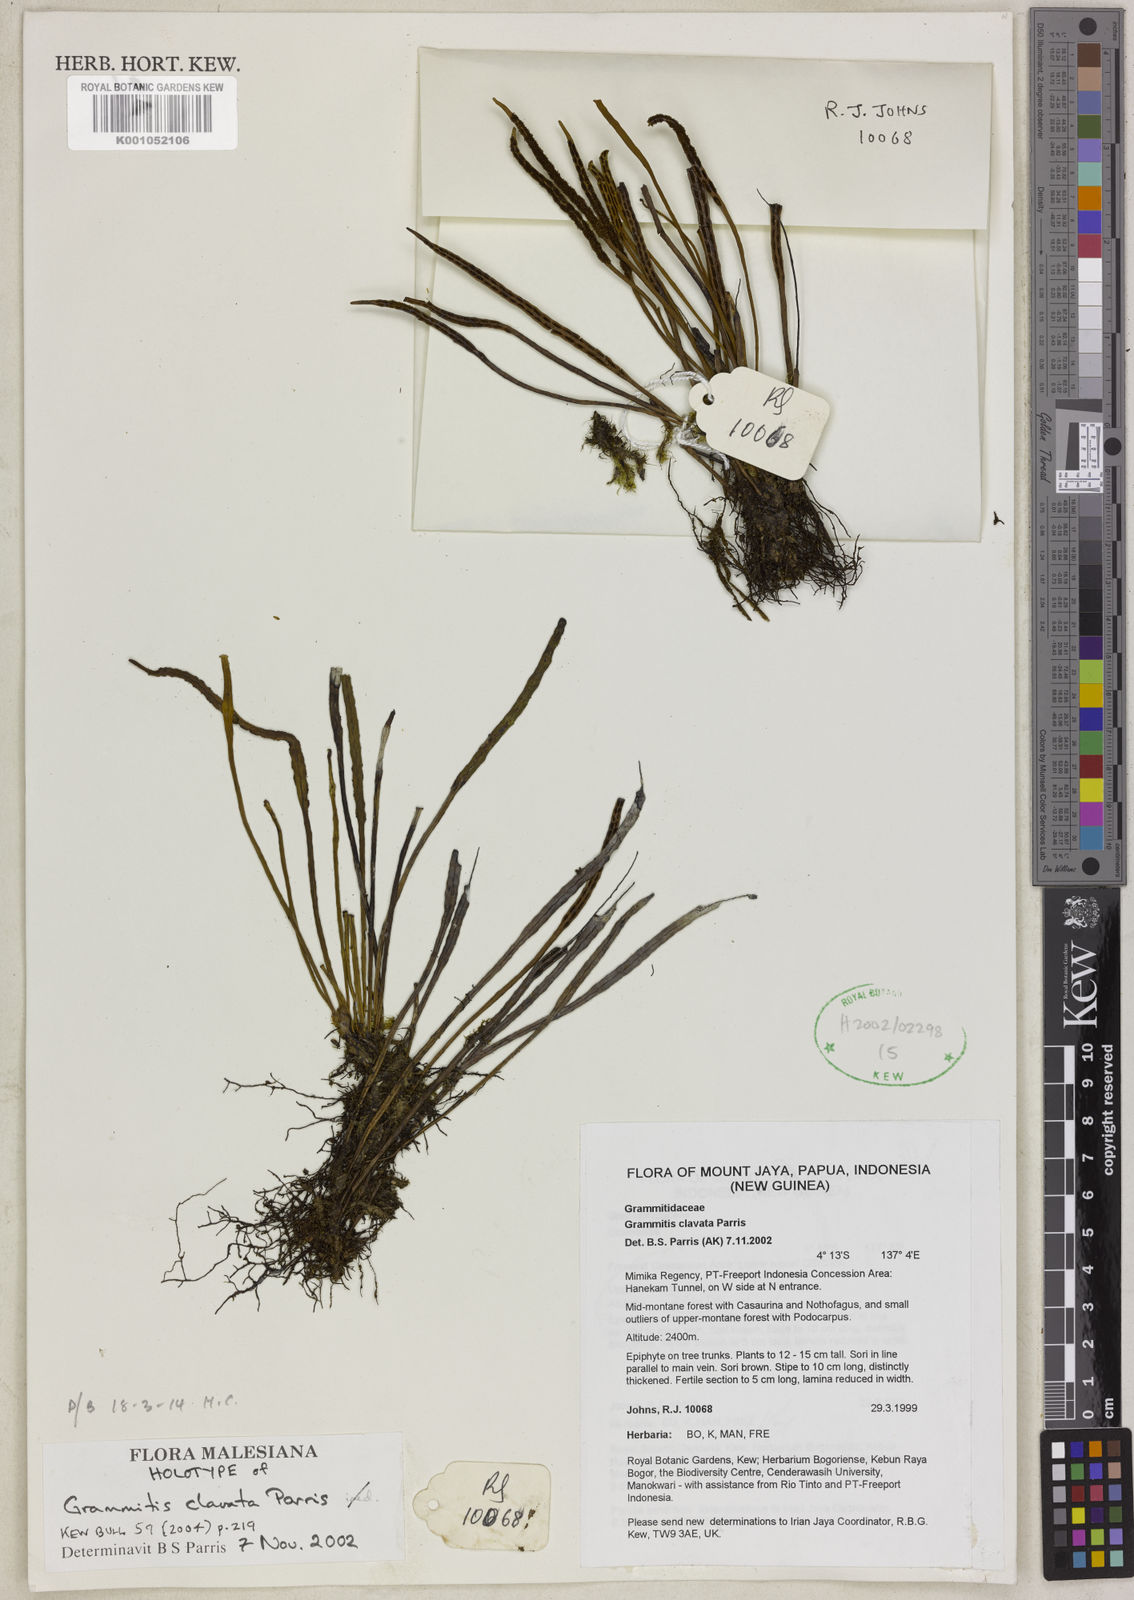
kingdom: Plantae
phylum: Tracheophyta
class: Polypodiopsida
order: Polypodiales
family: Polypodiaceae
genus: Oreogrammitis
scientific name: Oreogrammitis clavata
